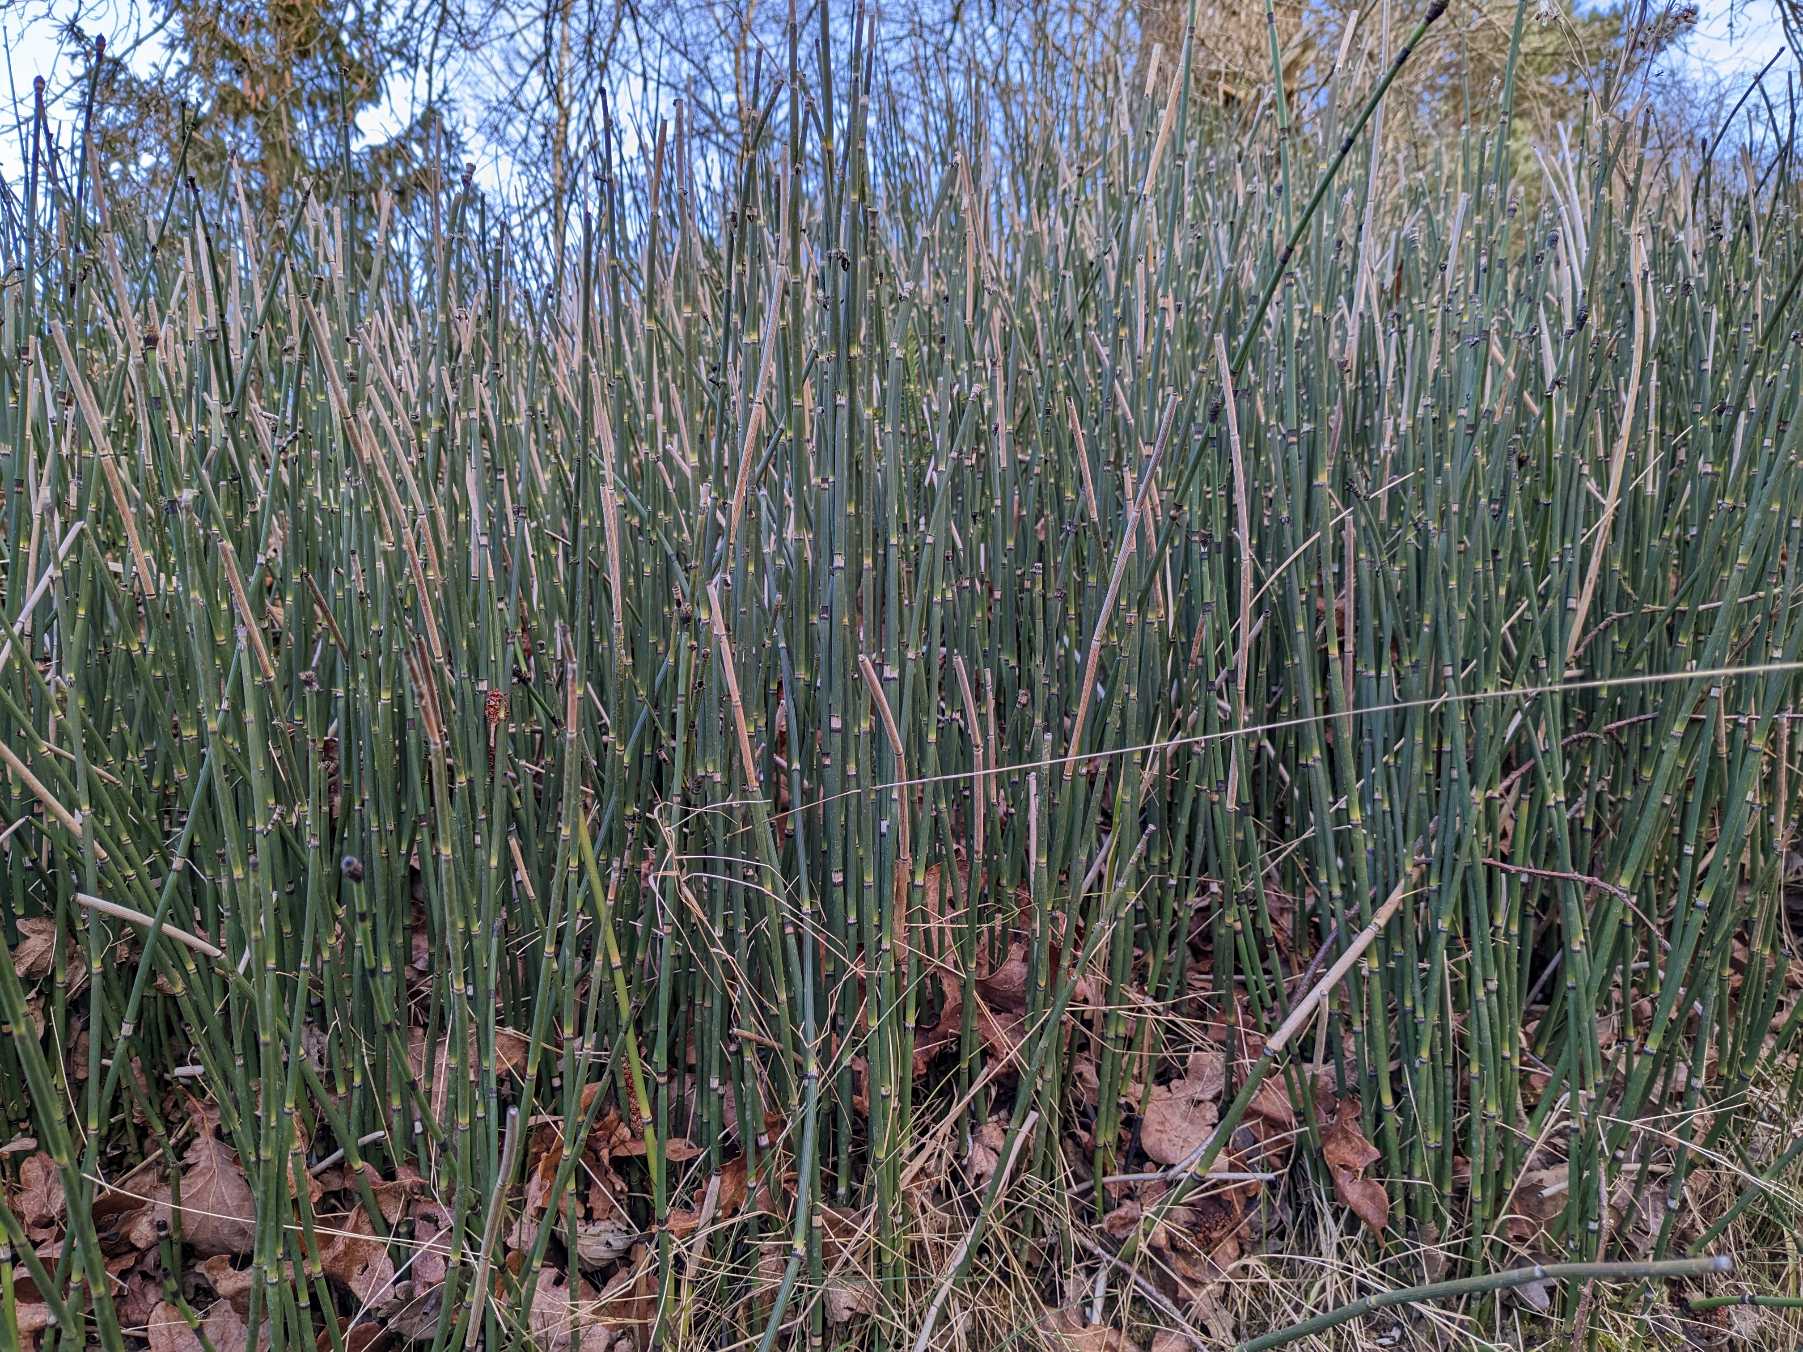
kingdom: Plantae
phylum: Tracheophyta
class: Polypodiopsida
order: Equisetales
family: Equisetaceae
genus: Equisetum
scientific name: Equisetum hyemale
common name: Skavgræs
